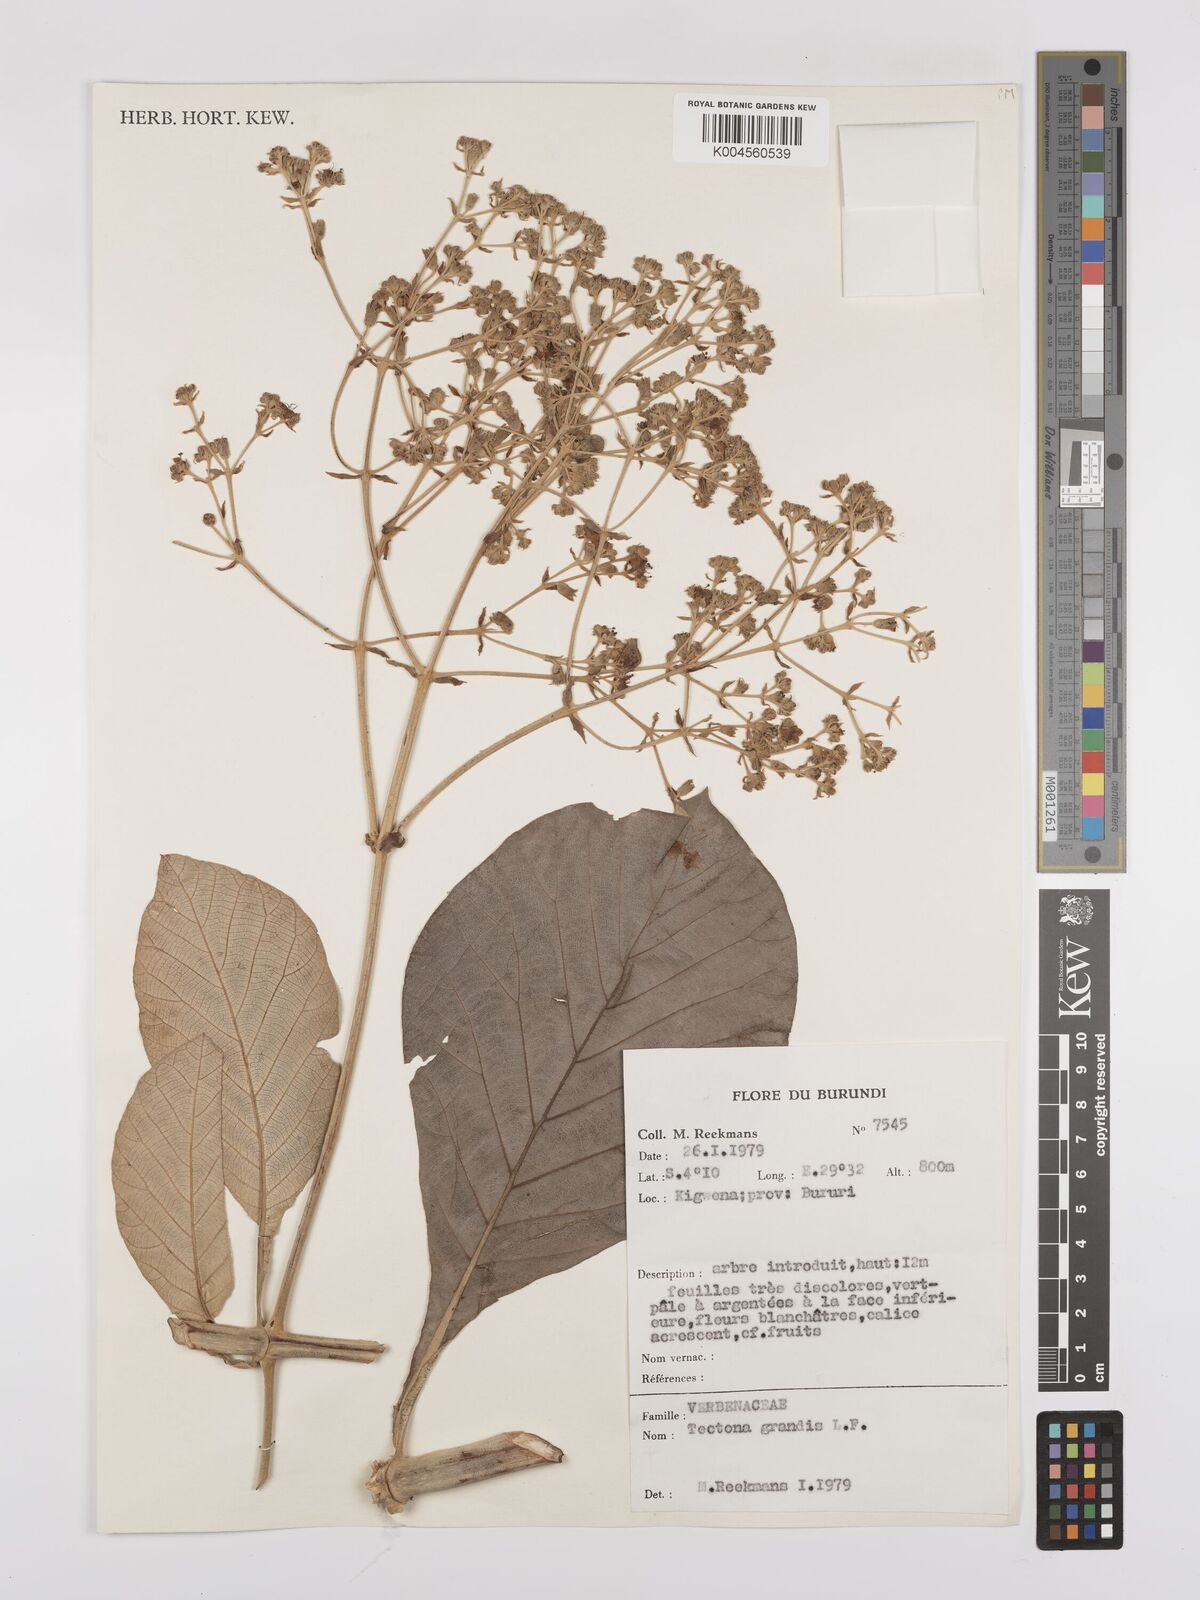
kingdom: Plantae
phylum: Tracheophyta
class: Magnoliopsida
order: Lamiales
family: Lamiaceae
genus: Tectona
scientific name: Tectona grandis
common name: Teak
